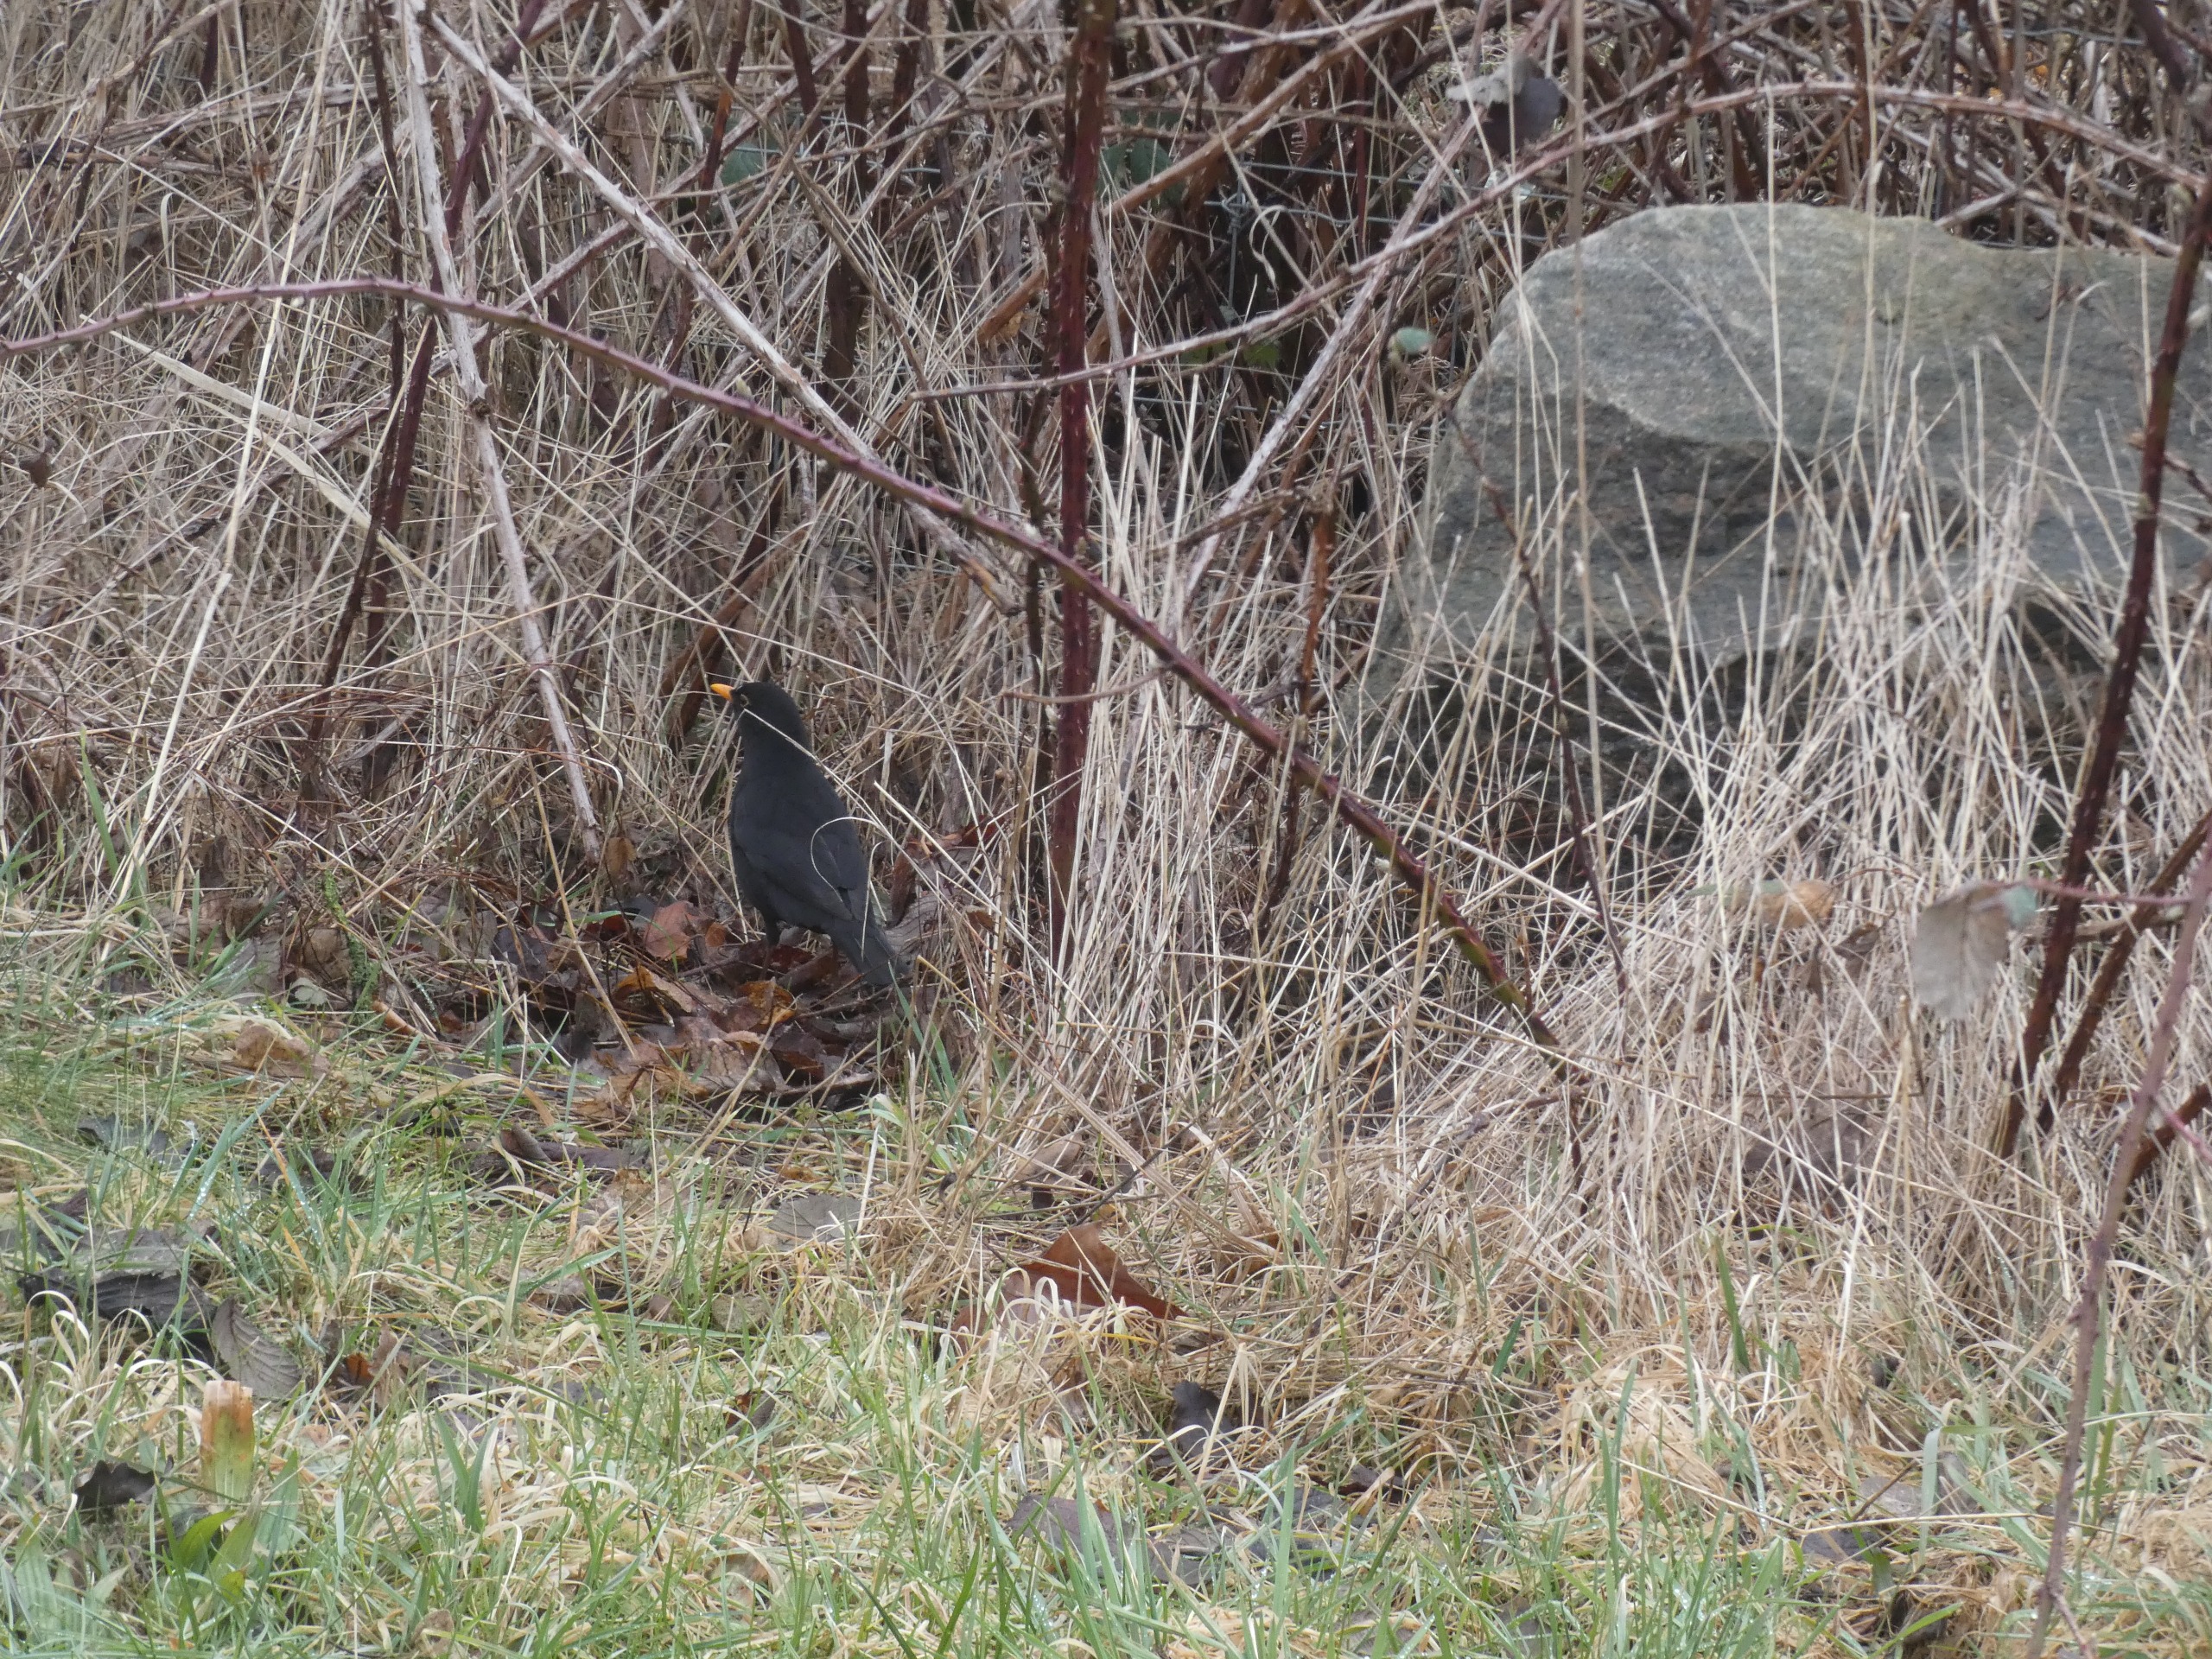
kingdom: Animalia
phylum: Chordata
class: Aves
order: Passeriformes
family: Turdidae
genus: Turdus
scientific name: Turdus merula
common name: Solsort
